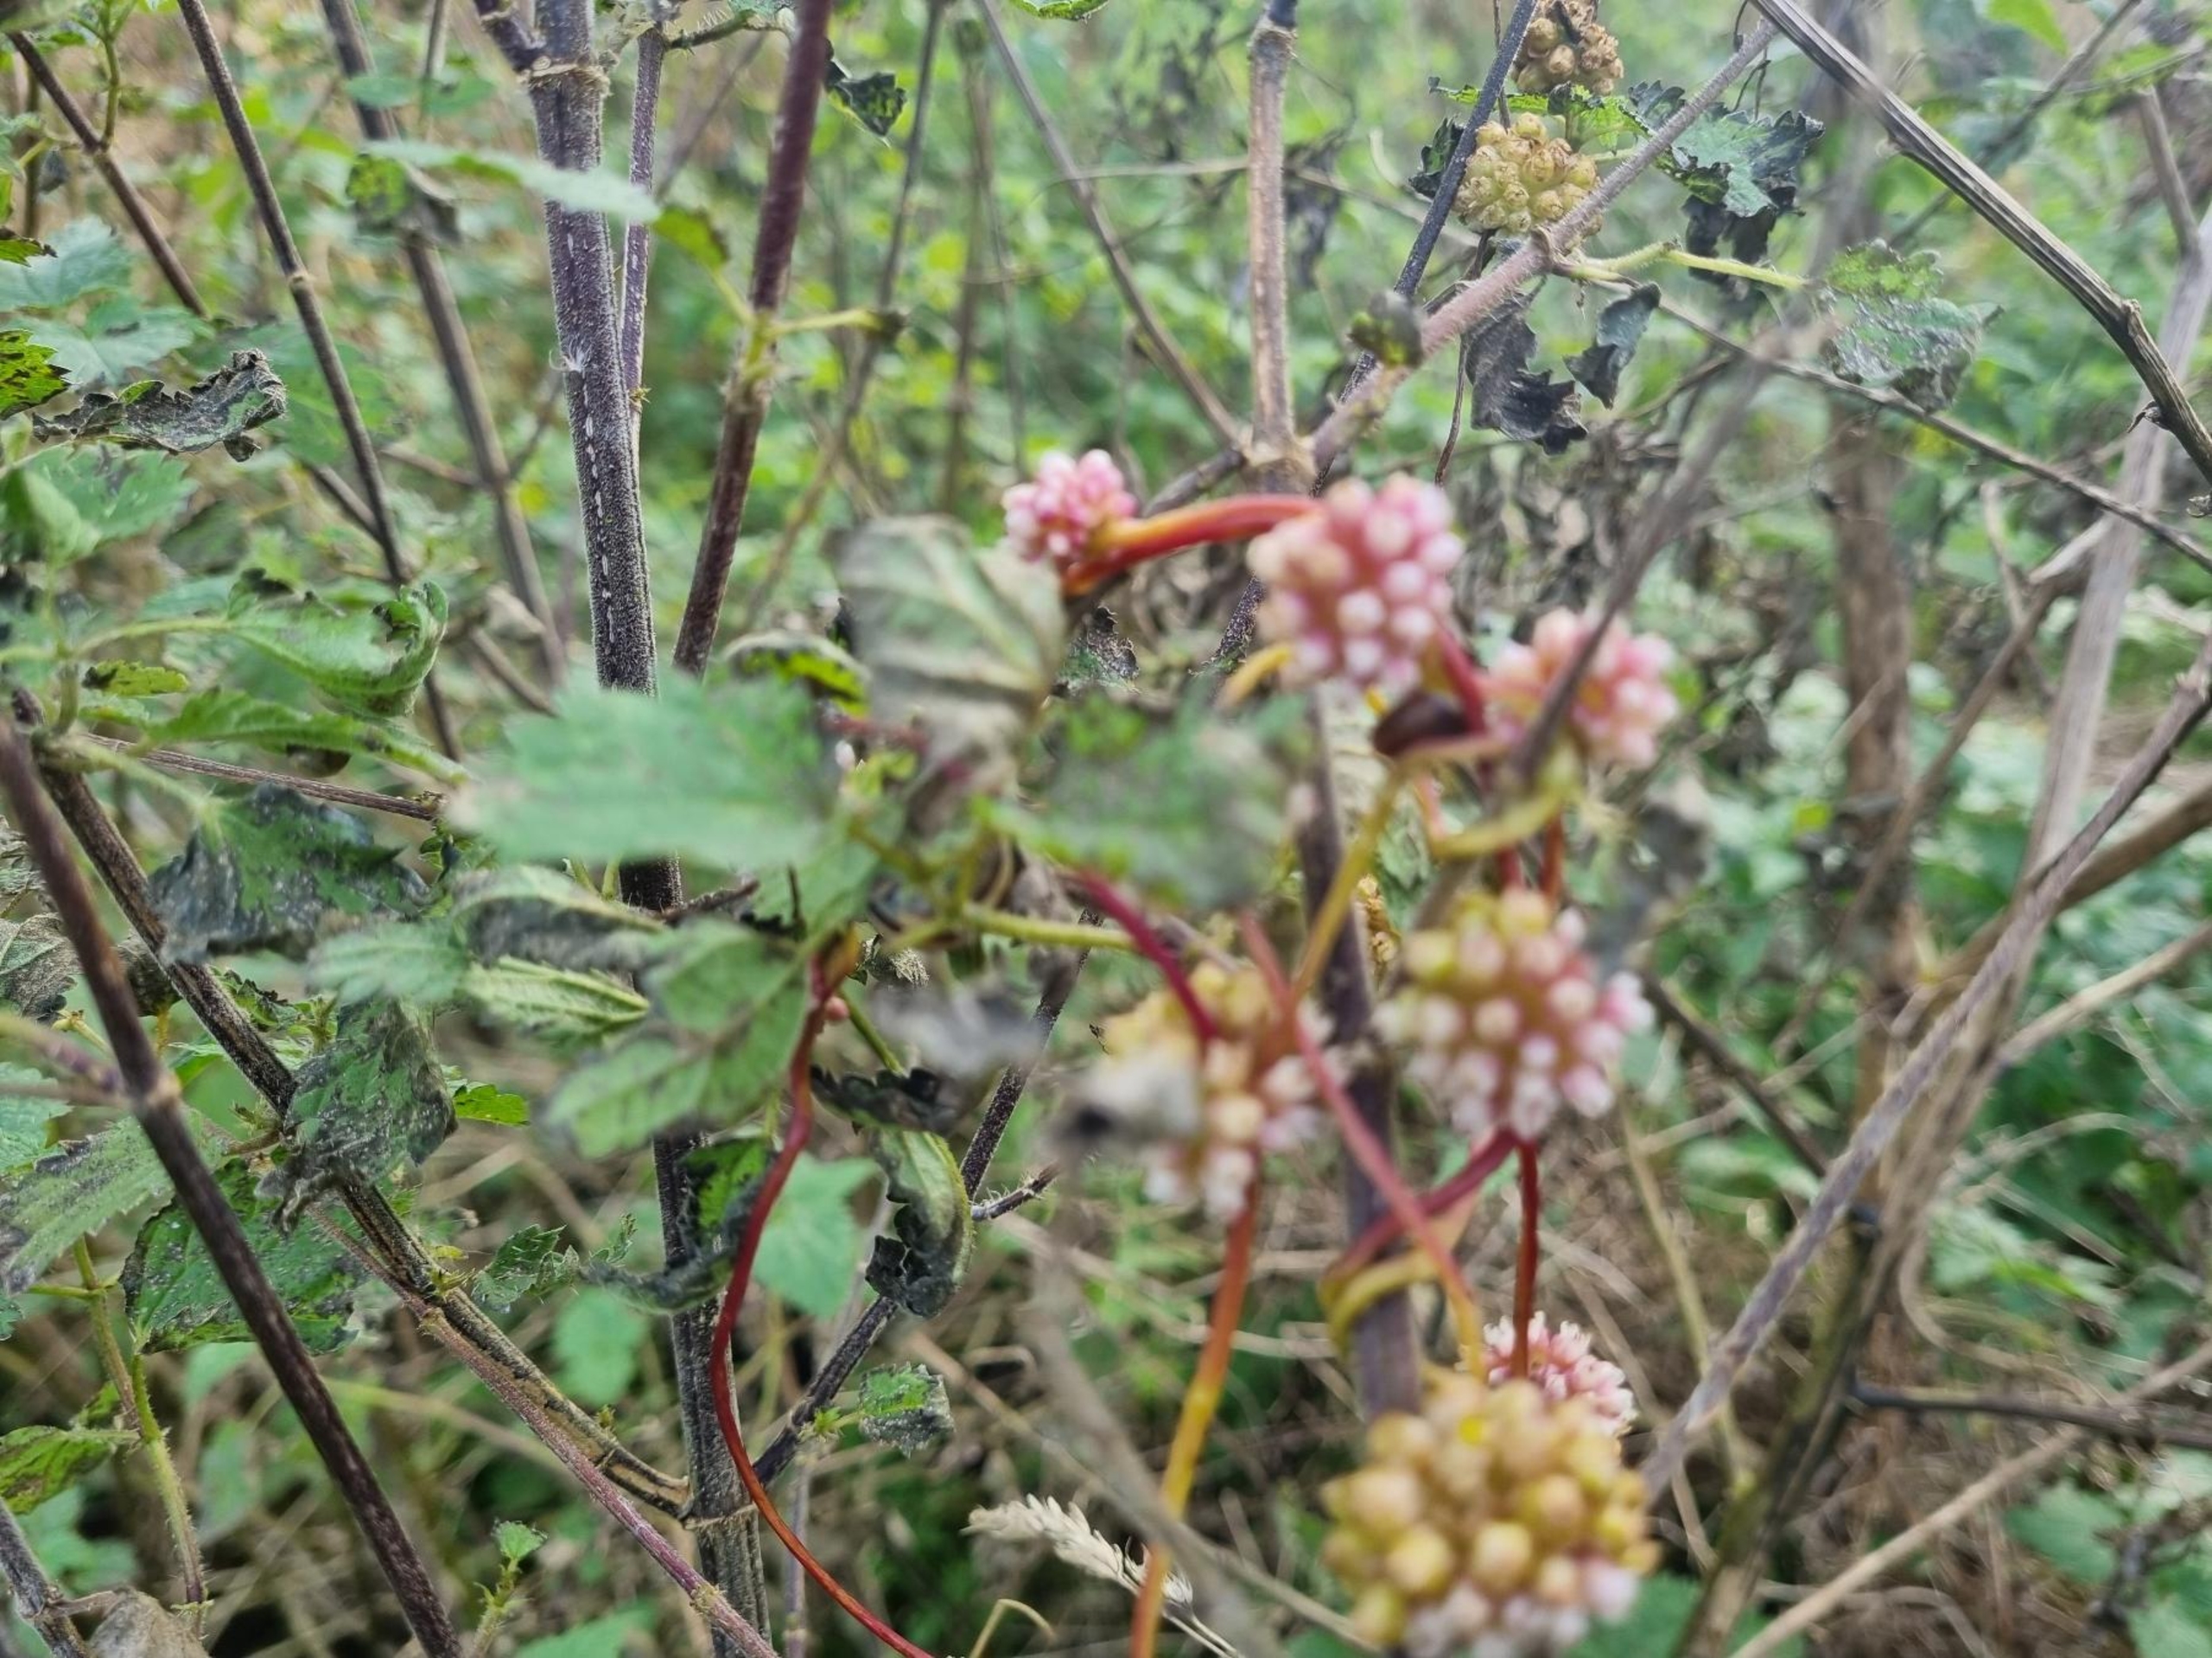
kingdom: Plantae
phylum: Tracheophyta
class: Magnoliopsida
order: Solanales
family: Convolvulaceae
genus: Cuscuta
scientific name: Cuscuta europaea
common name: Nælde-silke
